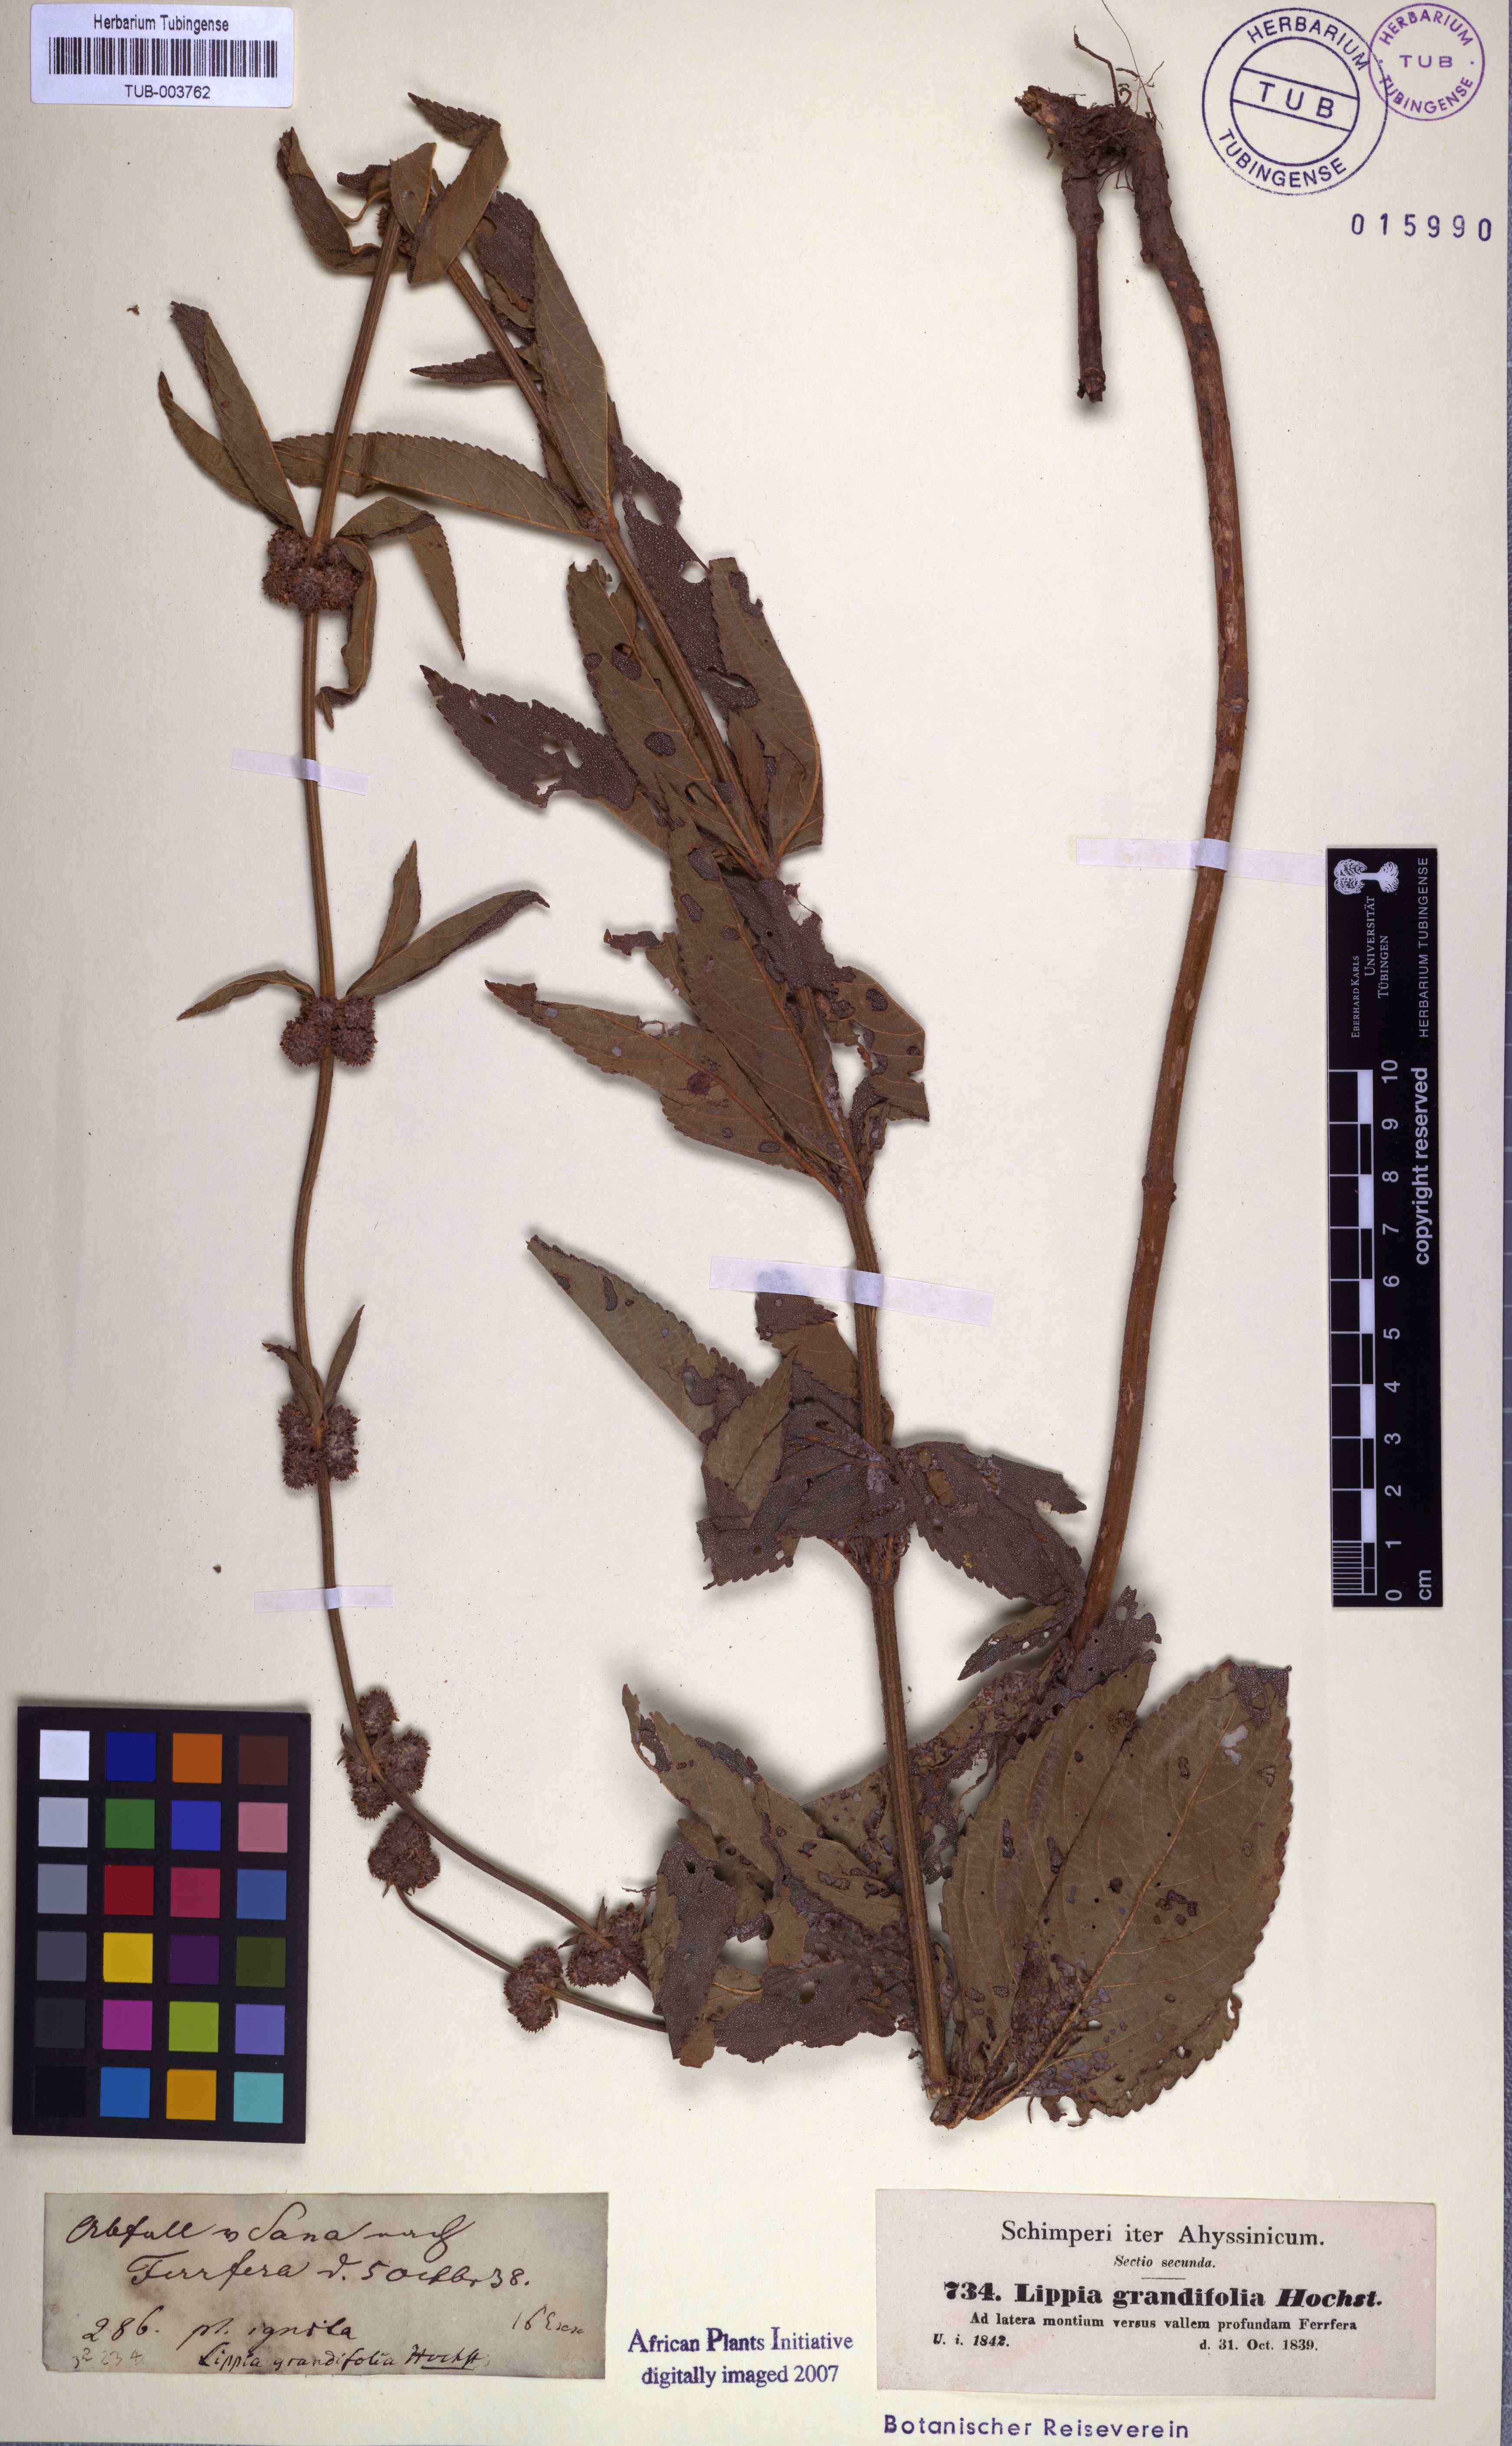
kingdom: Plantae
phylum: Tracheophyta
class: Magnoliopsida
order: Lamiales
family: Verbenaceae
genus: Lippia
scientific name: Lippia abyssinica
